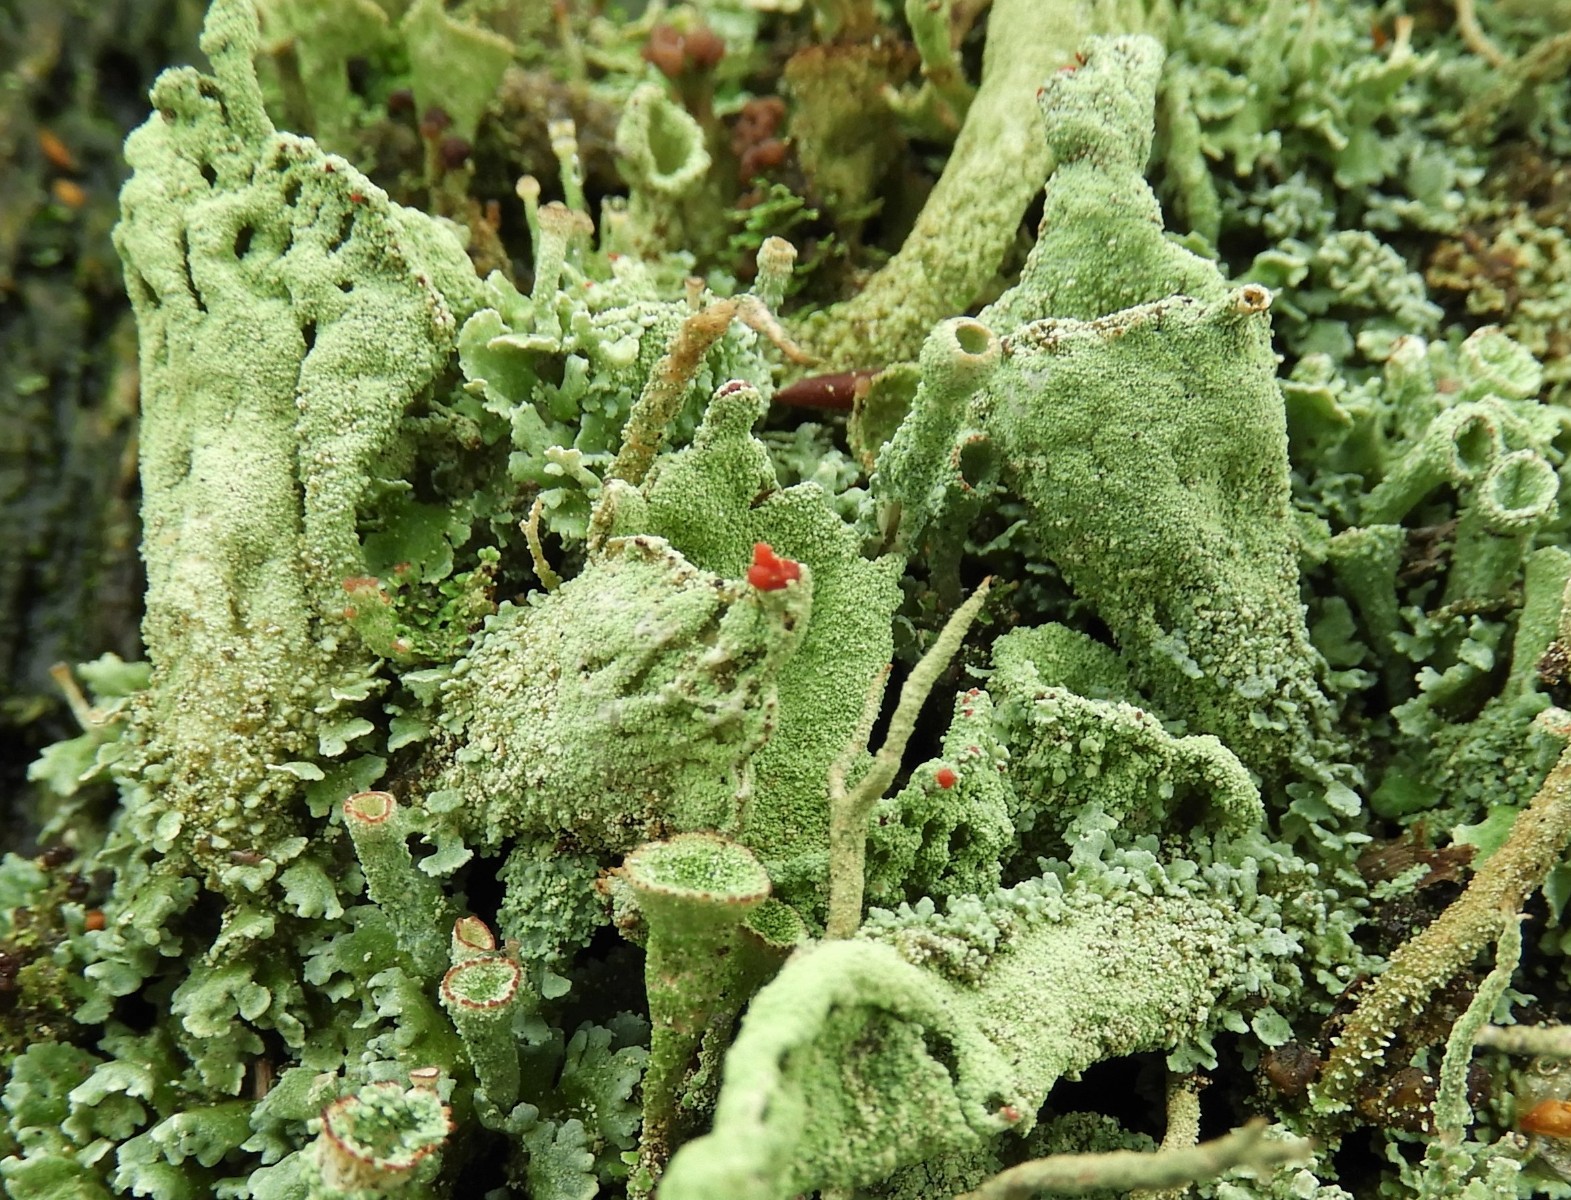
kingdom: Fungi
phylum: Ascomycota
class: Lecanoromycetes
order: Lecanorales
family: Cladoniaceae
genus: Cladonia
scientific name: Cladonia
